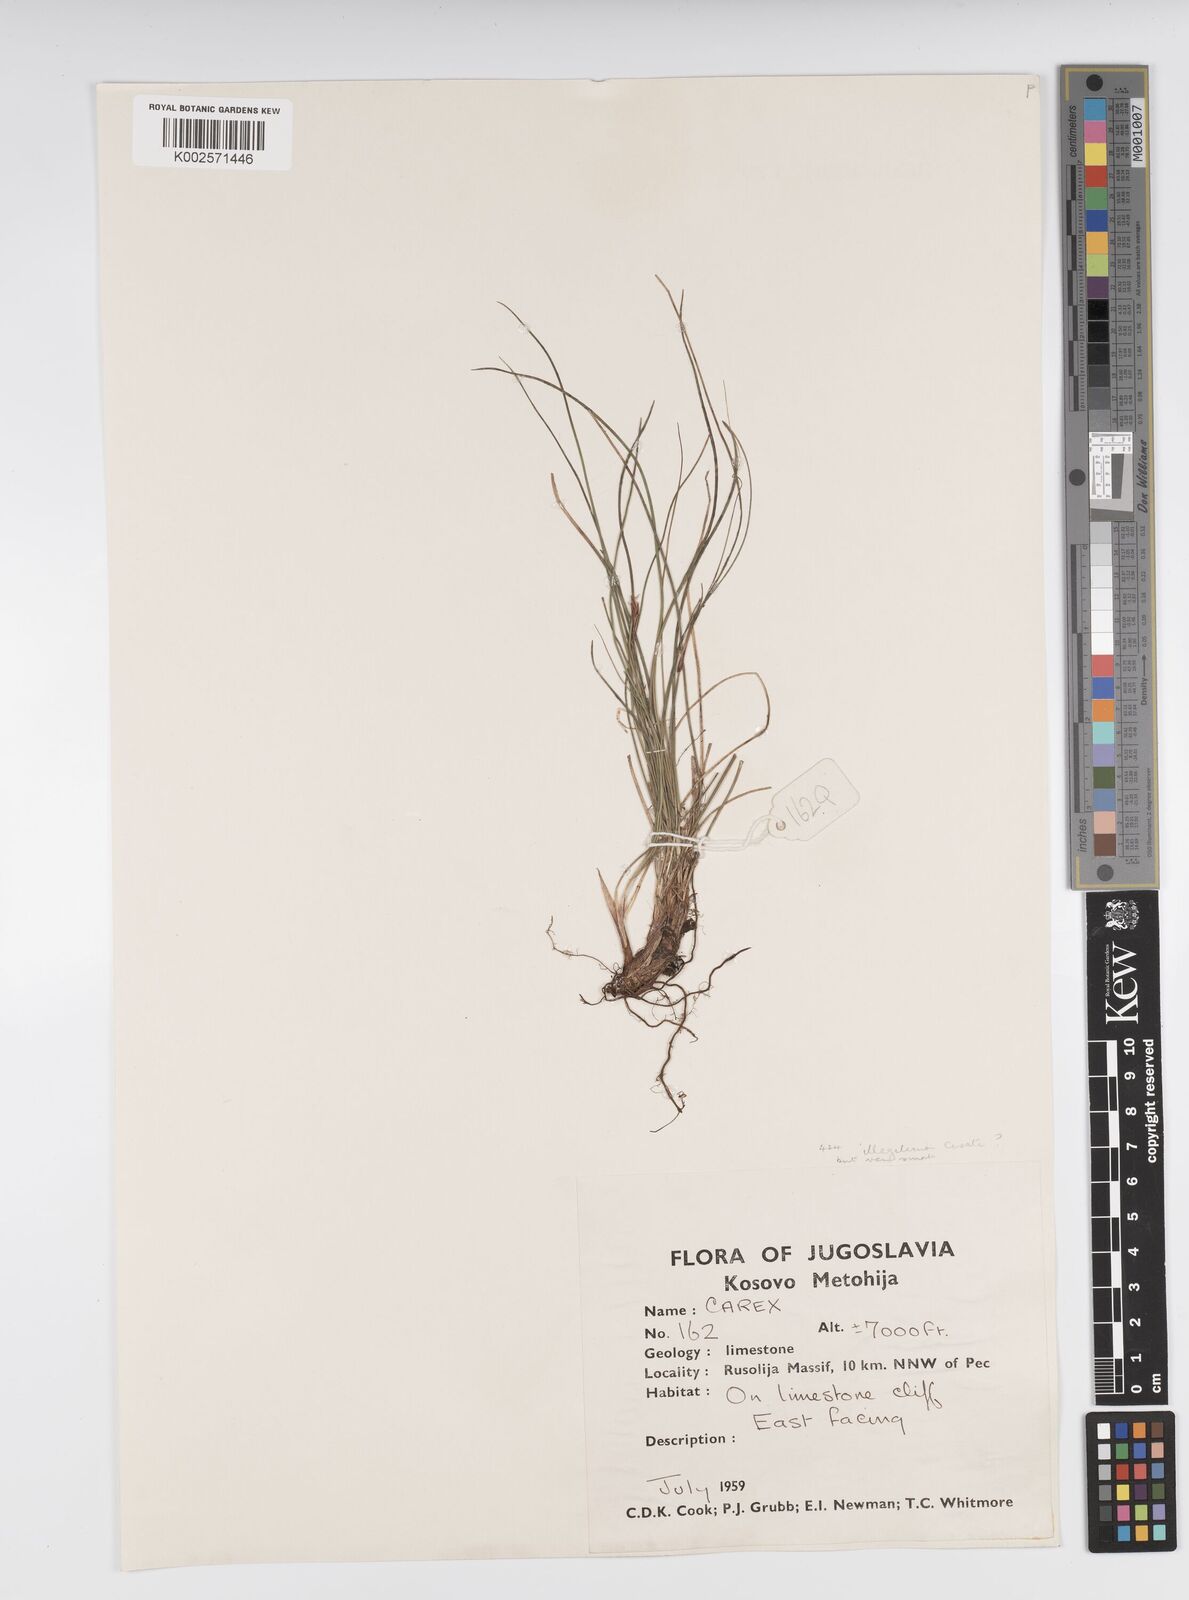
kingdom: Plantae
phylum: Tracheophyta
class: Liliopsida
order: Poales
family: Cyperaceae
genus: Carex
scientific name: Carex illegitima
